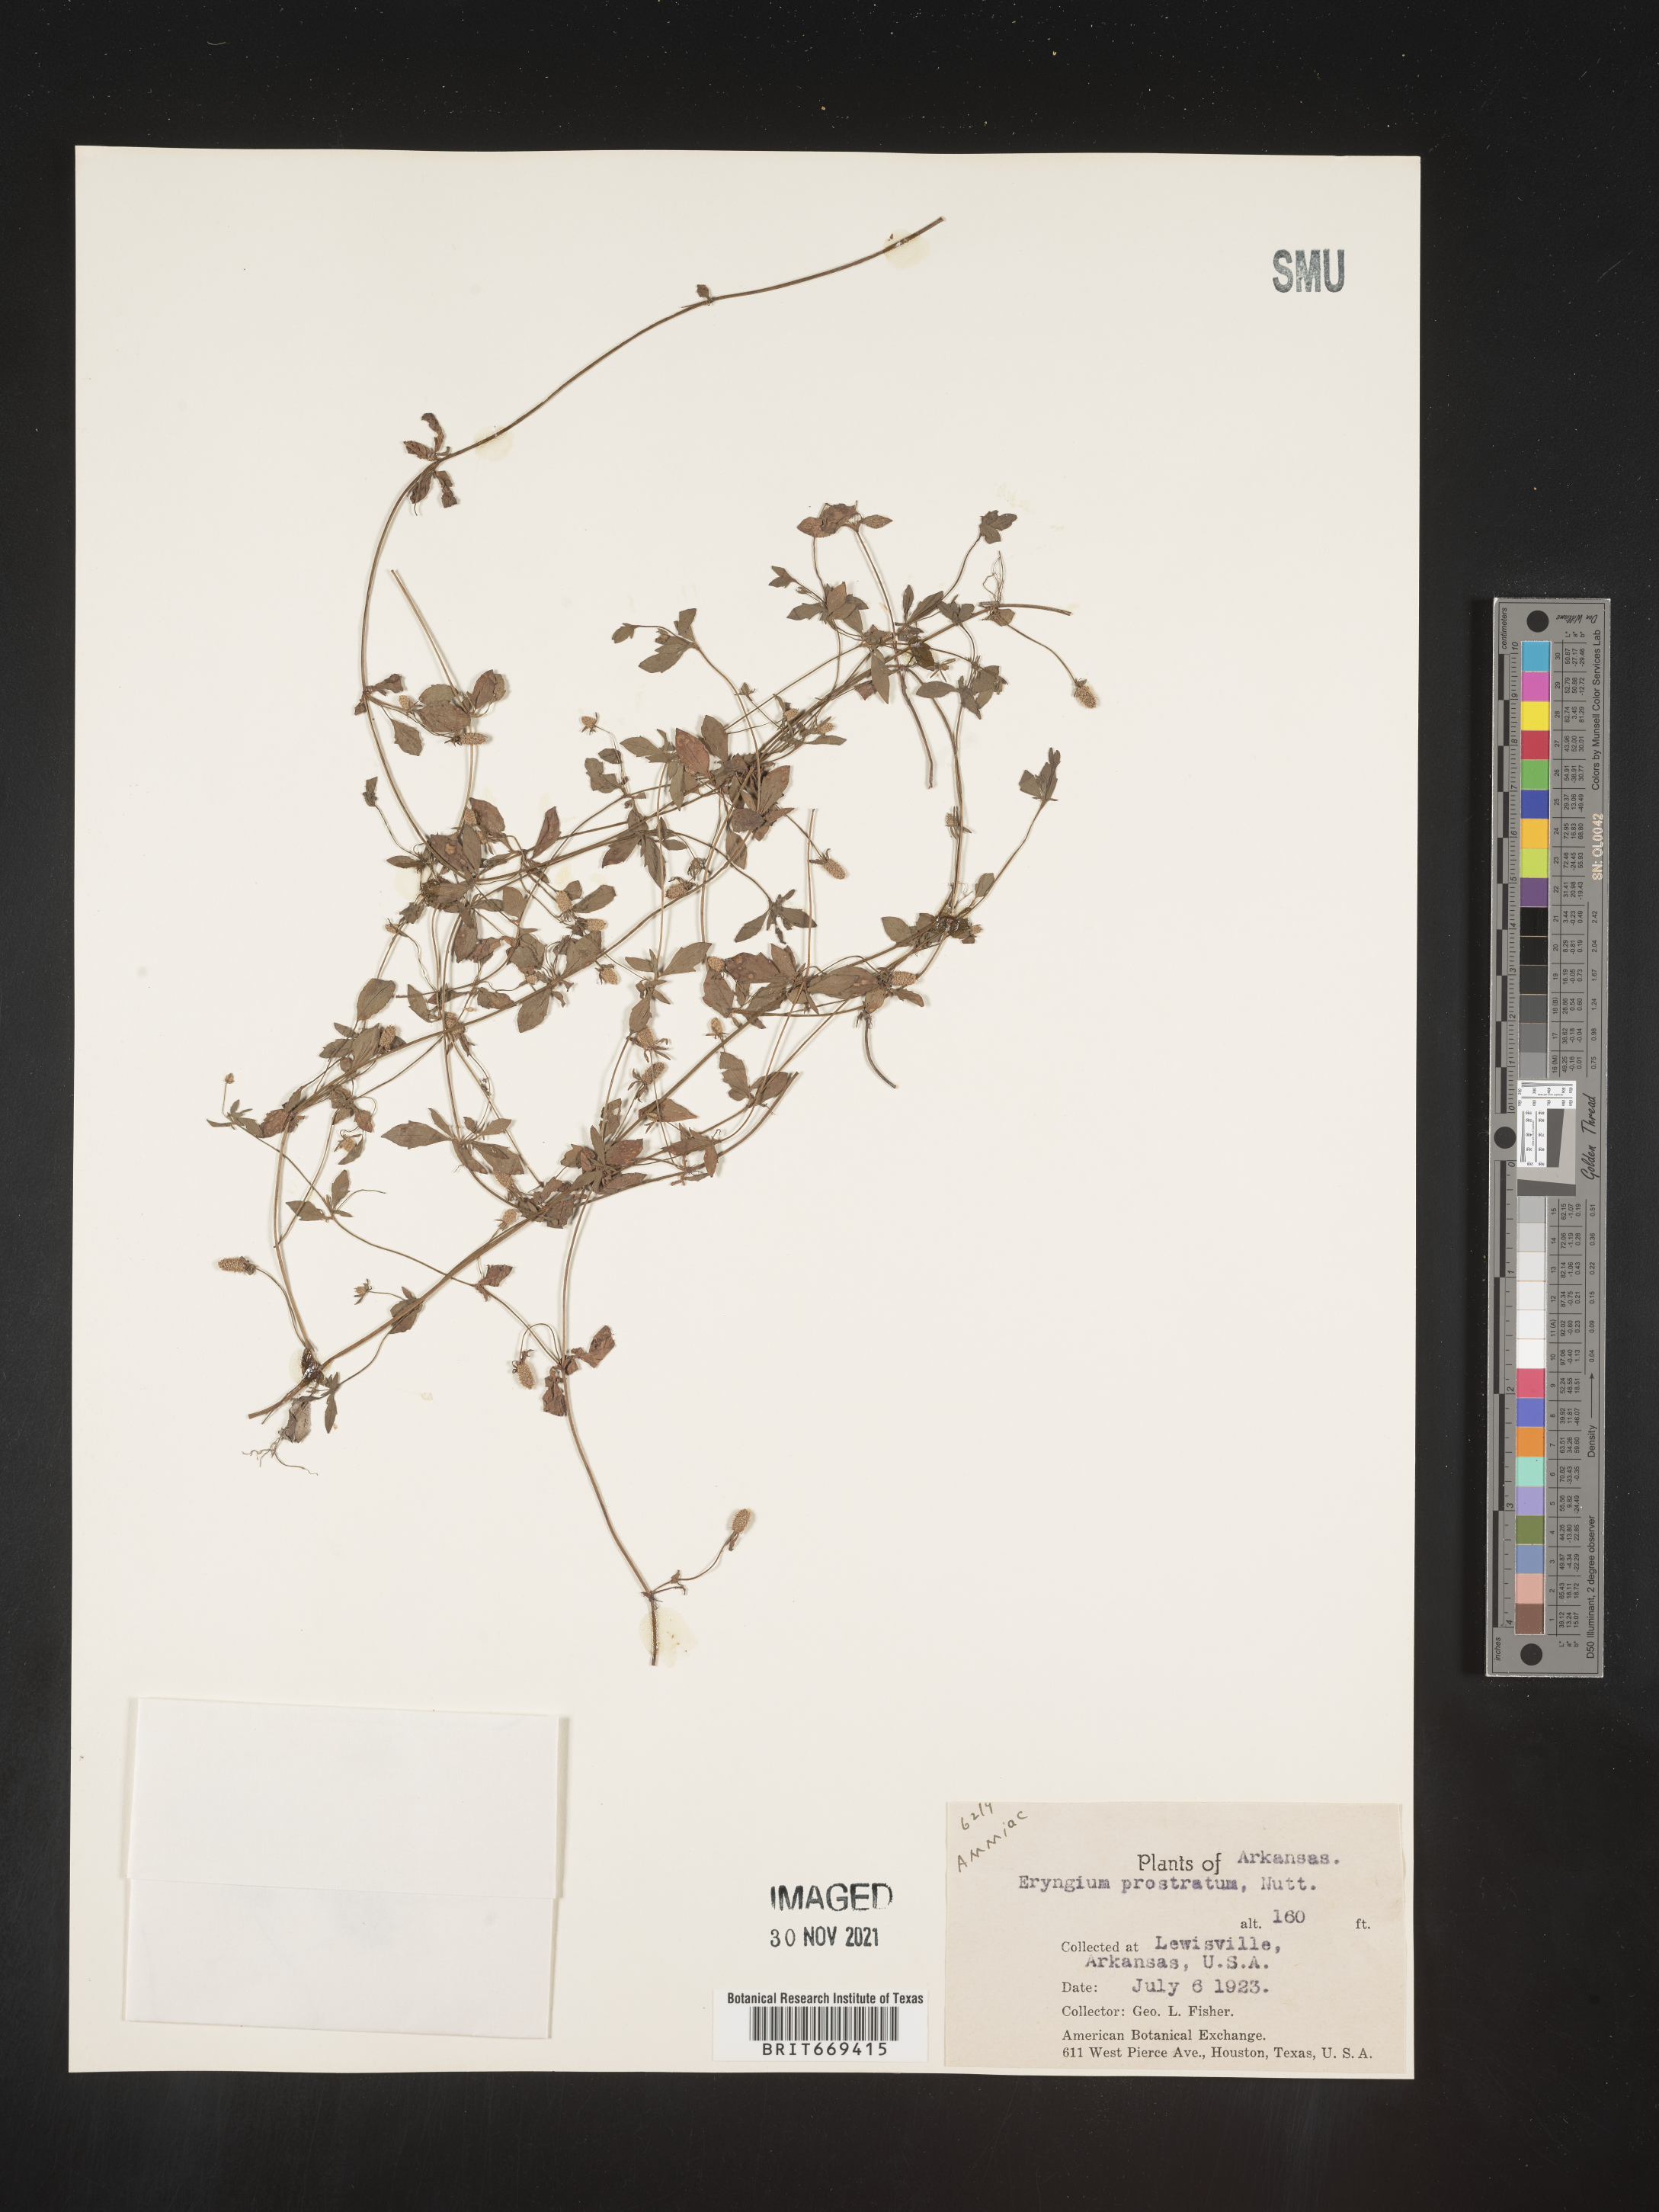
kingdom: Plantae
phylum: Tracheophyta
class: Magnoliopsida
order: Apiales
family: Apiaceae
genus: Eryngium
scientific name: Eryngium prostratum
